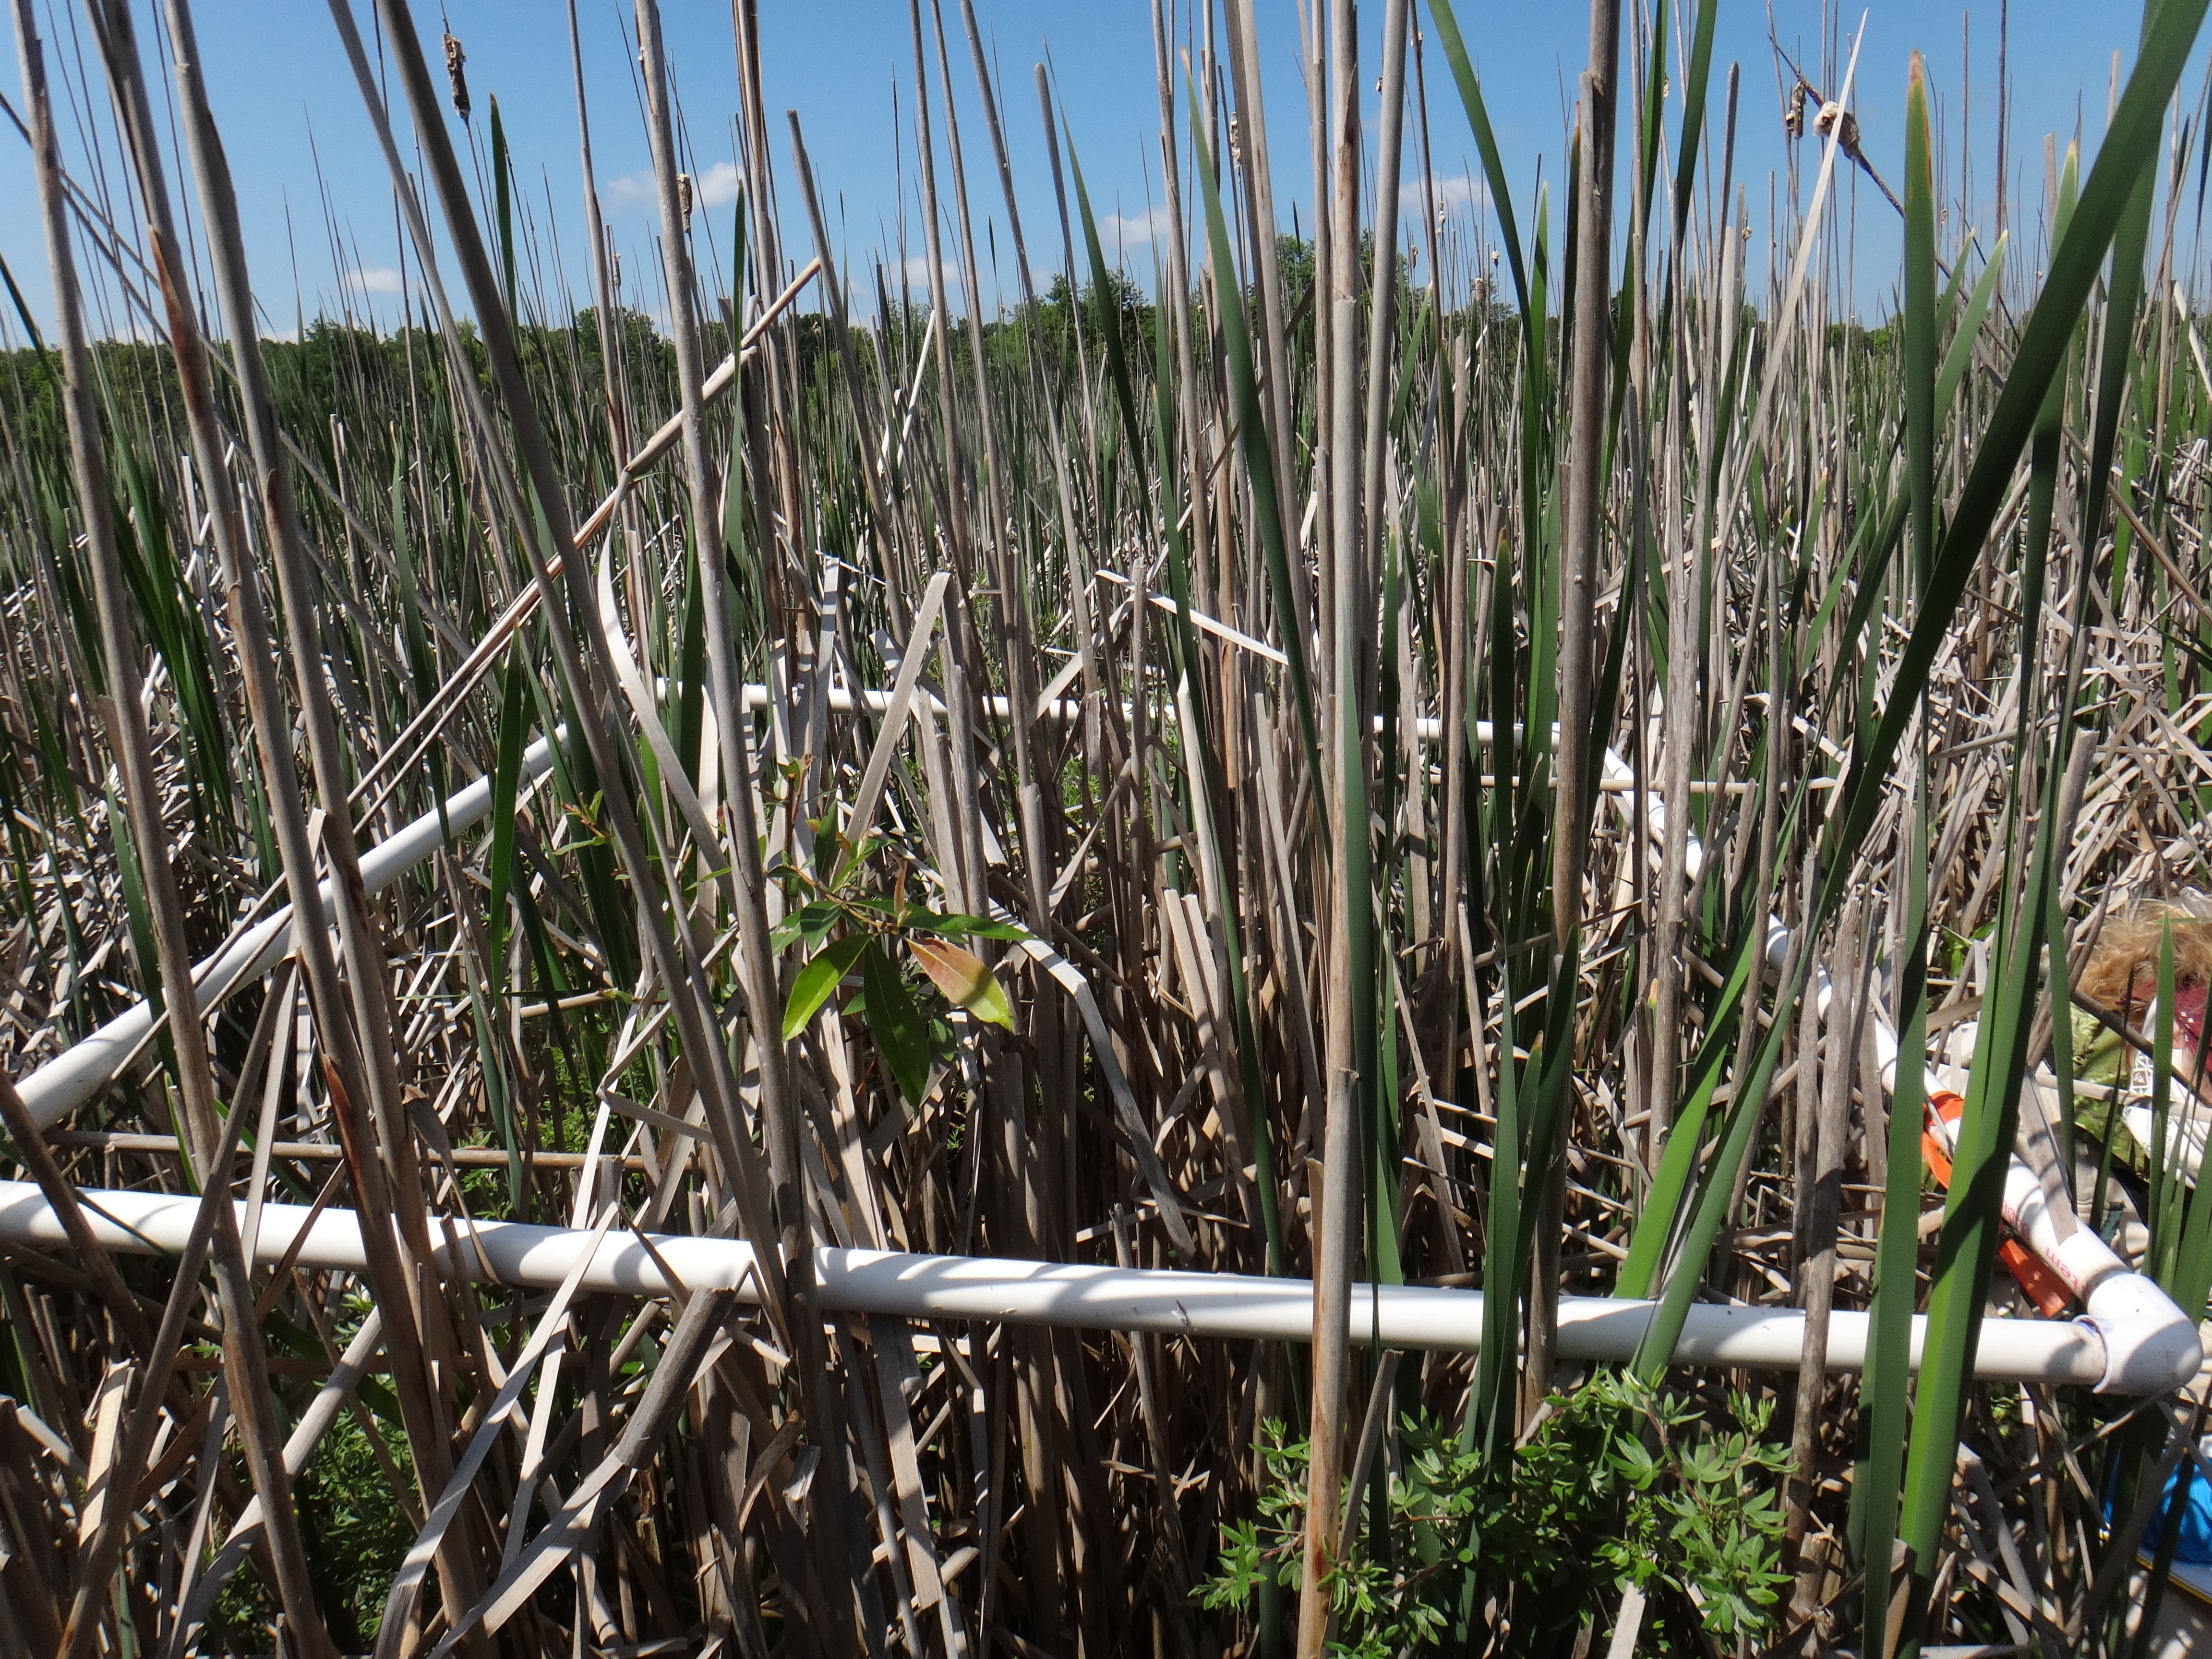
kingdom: Plantae
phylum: Tracheophyta
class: Magnoliopsida
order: Ericales
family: Balsaminaceae
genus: Impatiens
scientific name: Impatiens capensis
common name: Orange balsam
